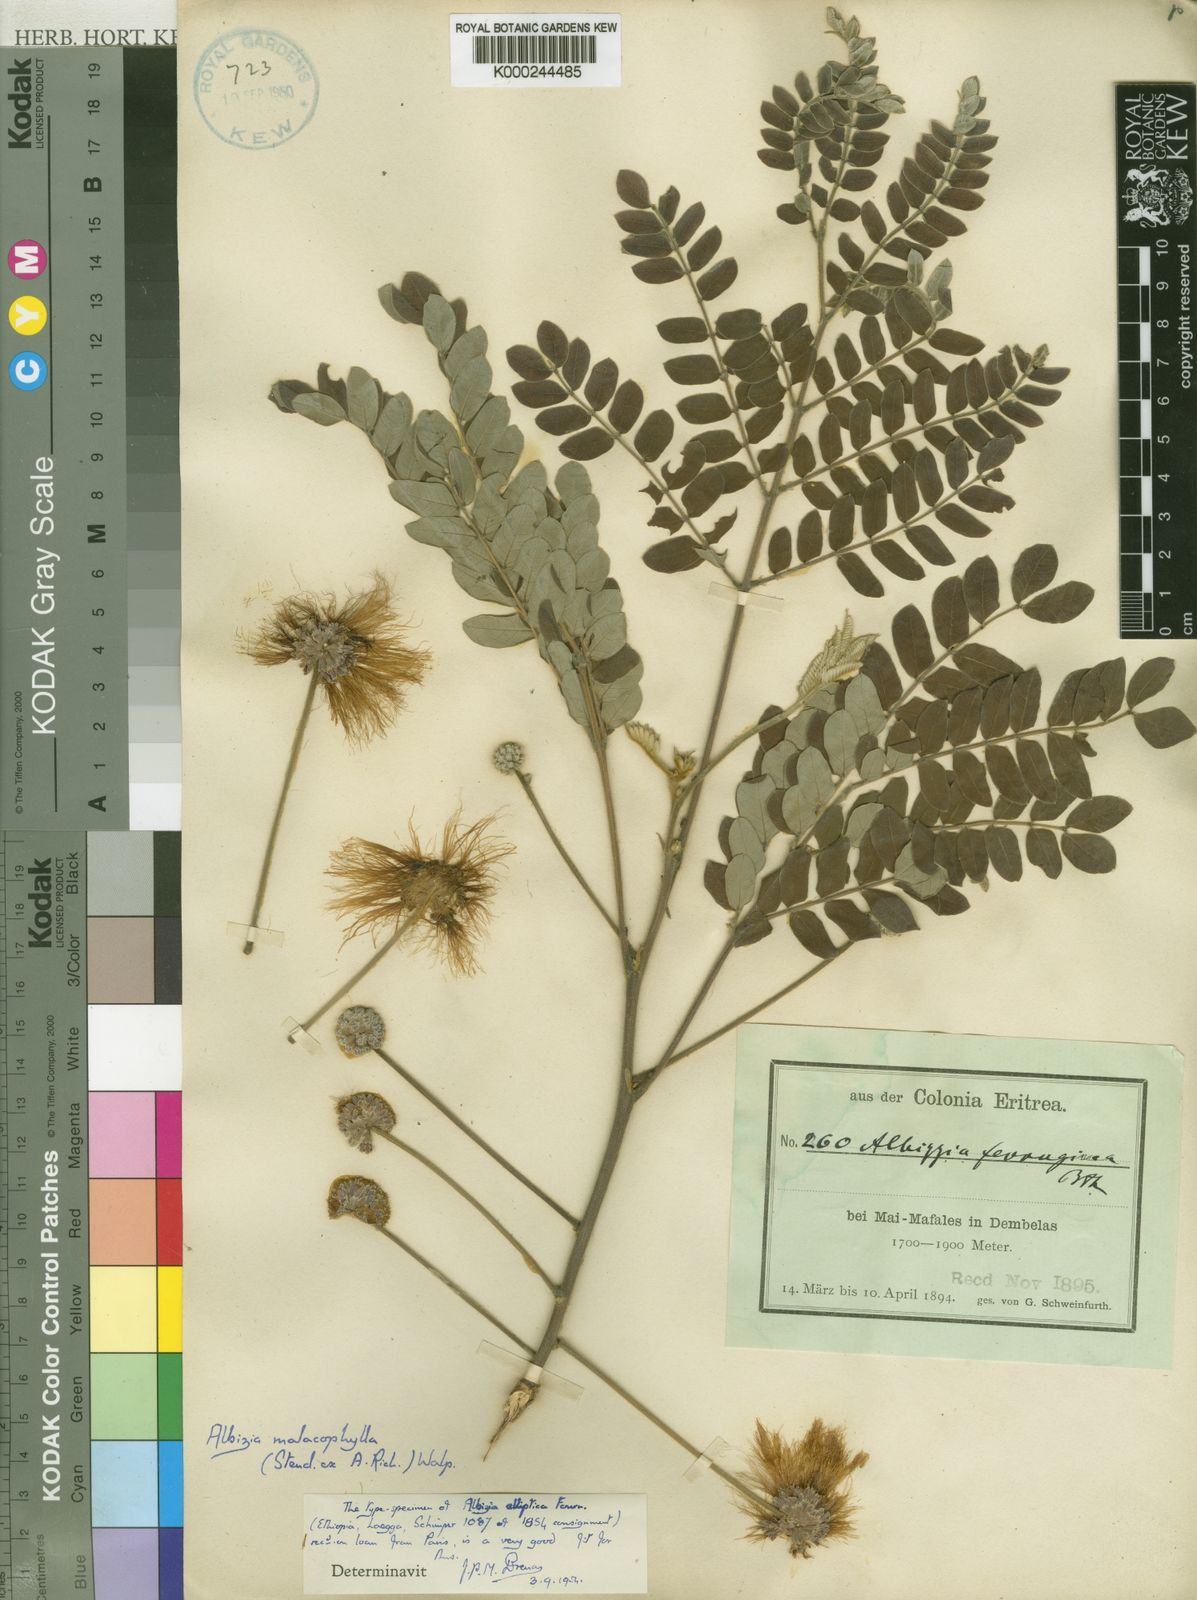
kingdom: Plantae
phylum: Tracheophyta
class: Magnoliopsida
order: Fabales
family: Fabaceae
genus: Albizia
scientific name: Albizia malacophylla
